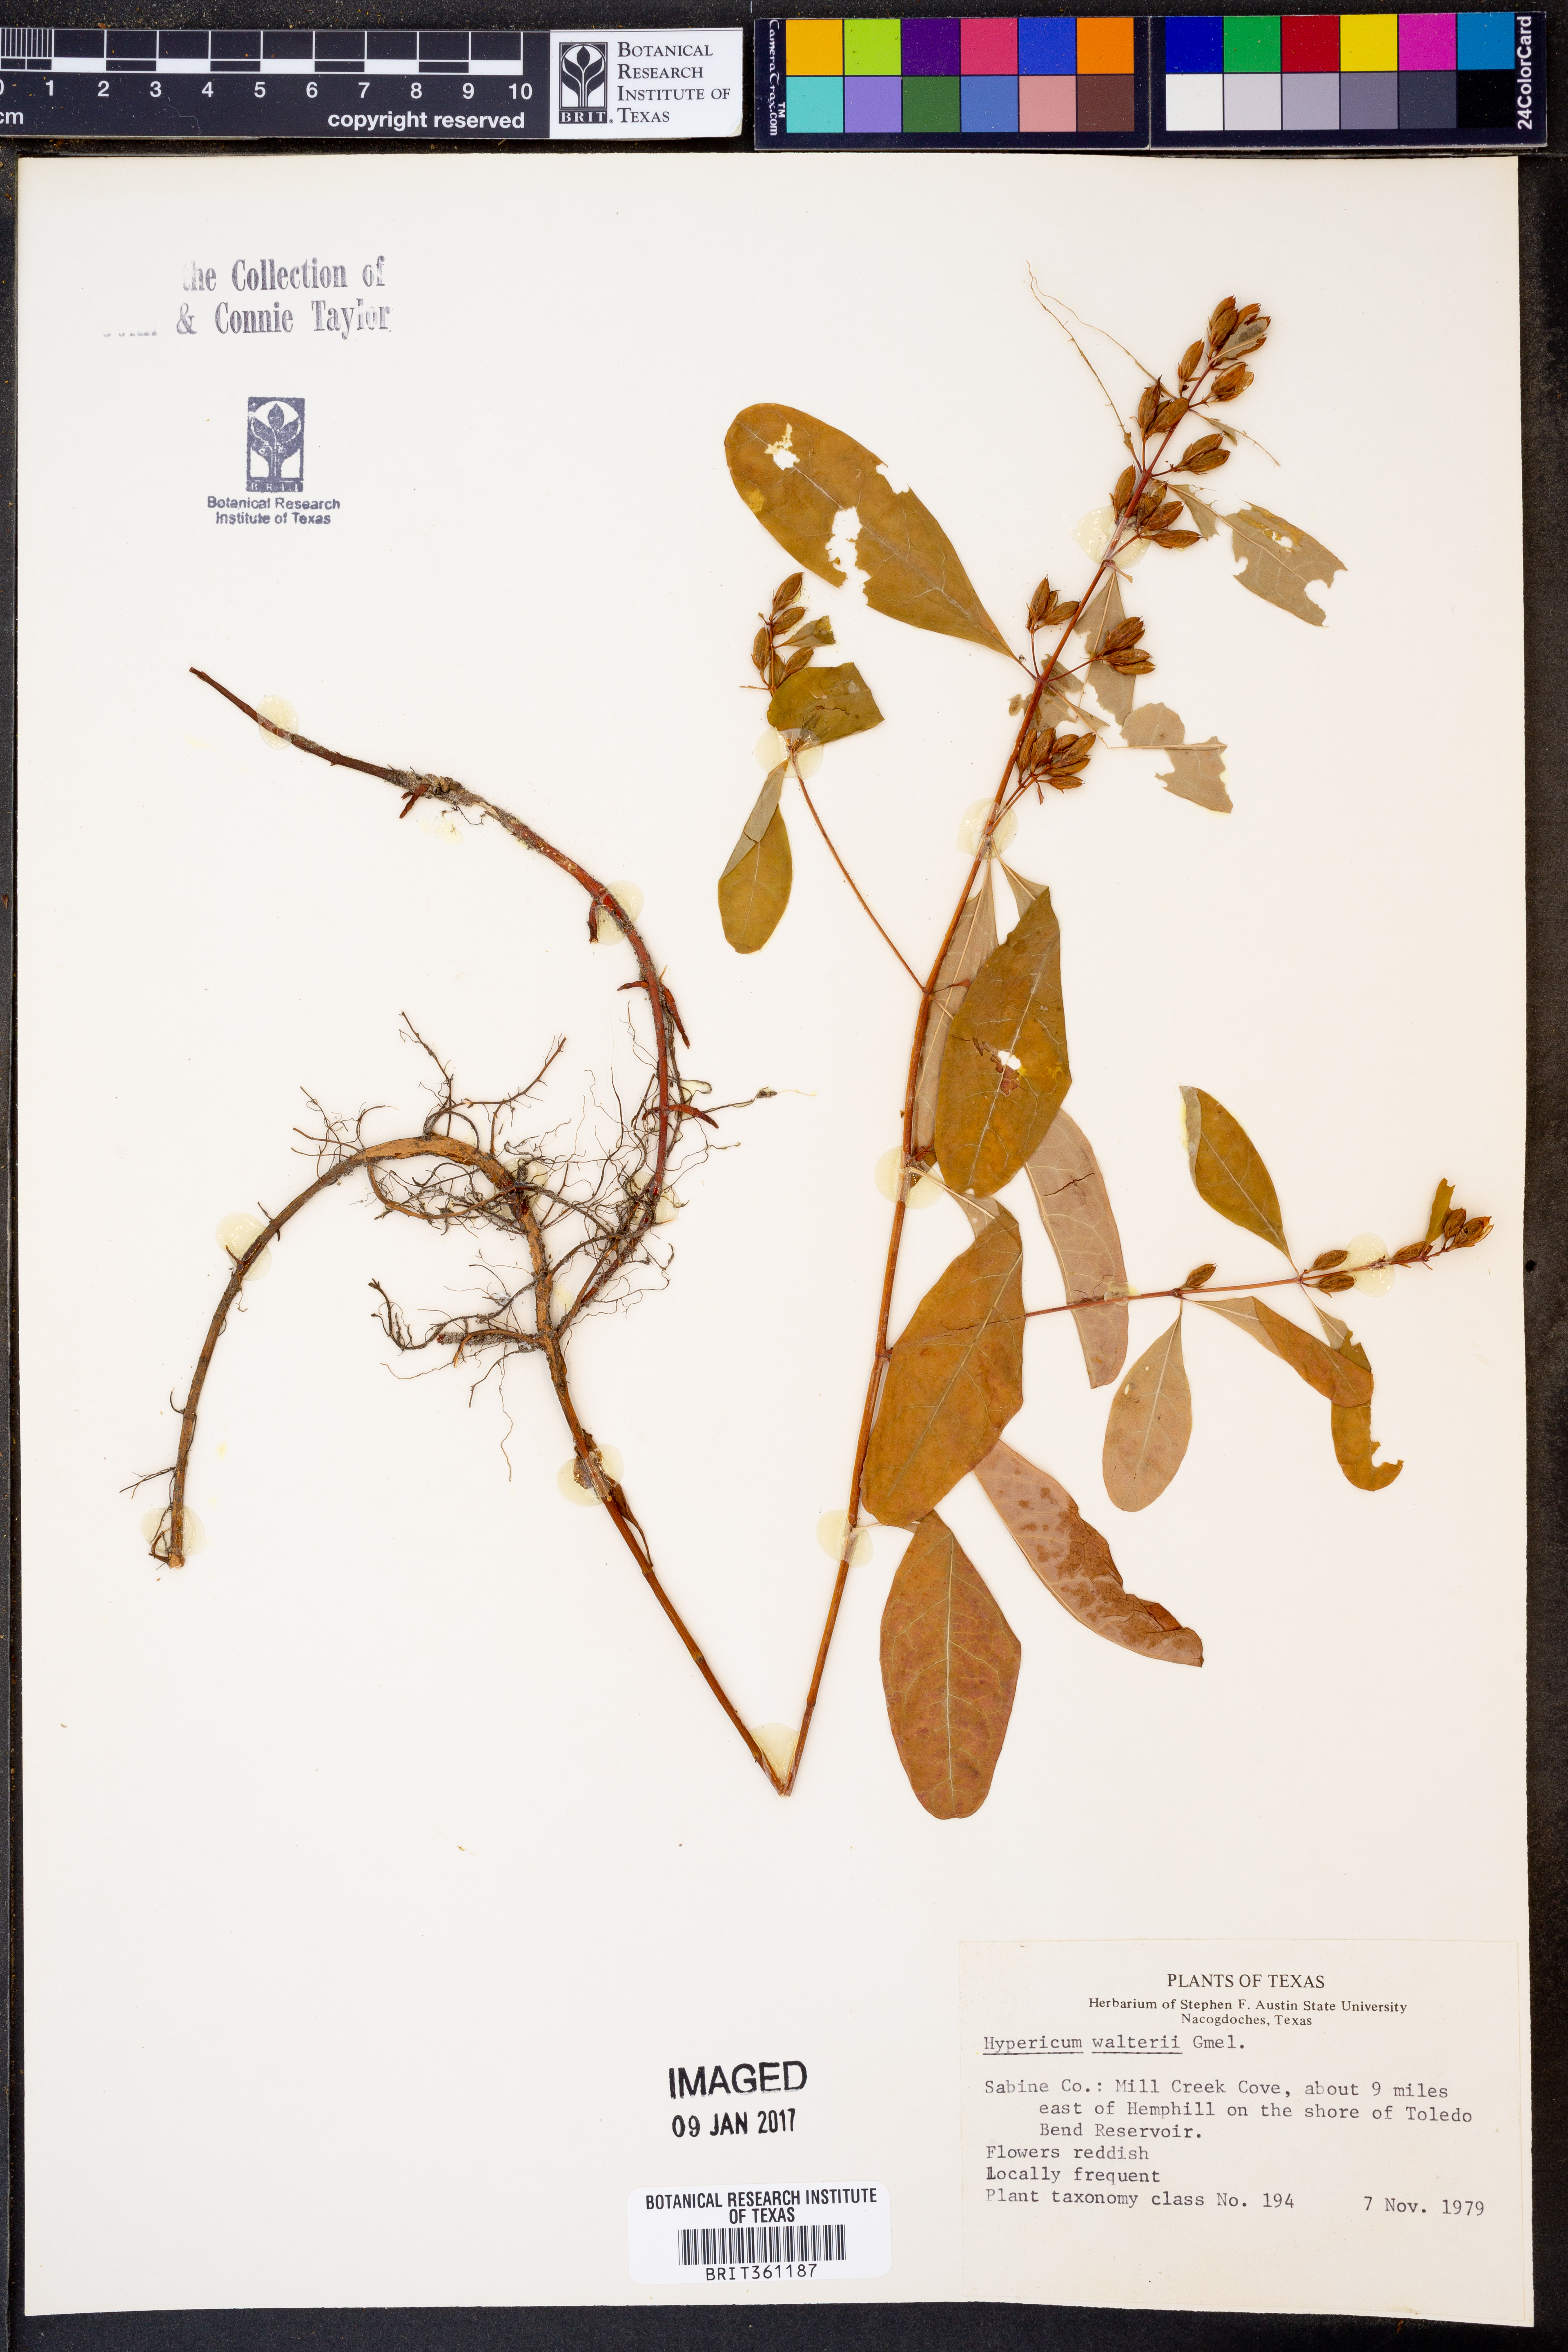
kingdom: Plantae
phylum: Tracheophyta
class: Magnoliopsida
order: Malpighiales
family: Hypericaceae
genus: Triadenum
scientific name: Triadenum walteri
